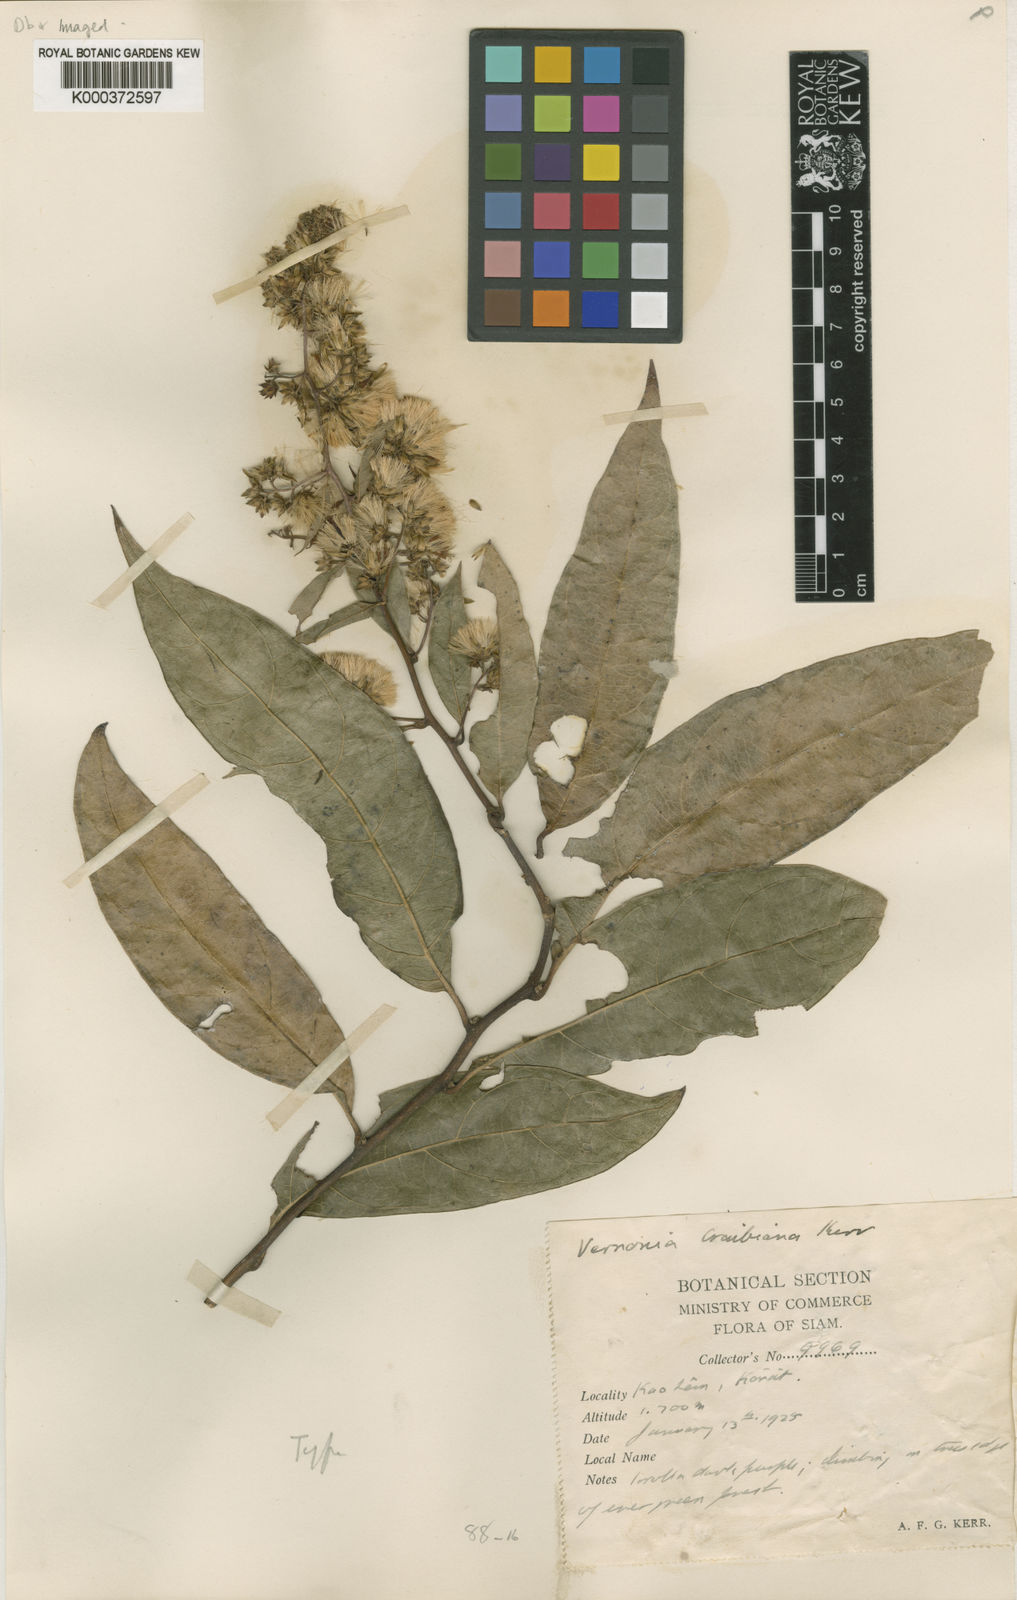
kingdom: Plantae
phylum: Tracheophyta
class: Magnoliopsida
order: Asterales
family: Asteraceae
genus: Decaneuropsis
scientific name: Decaneuropsis eberhardtii
